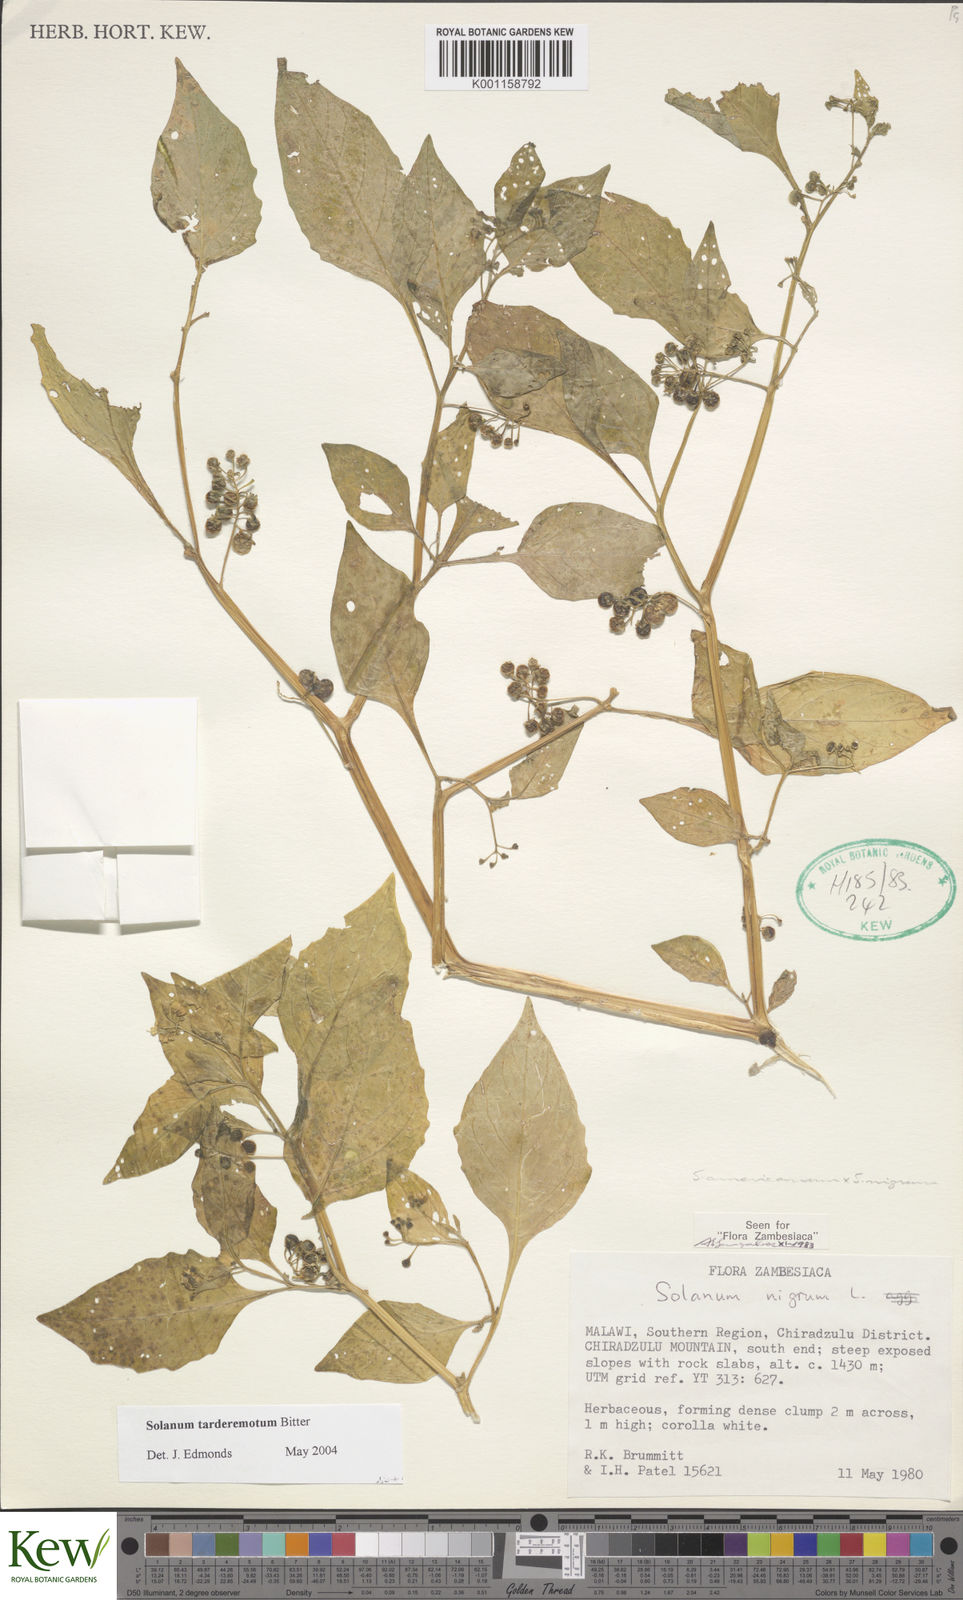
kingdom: Plantae
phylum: Tracheophyta
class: Magnoliopsida
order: Solanales
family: Solanaceae
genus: Solanum
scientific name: Solanum tarderemotum
